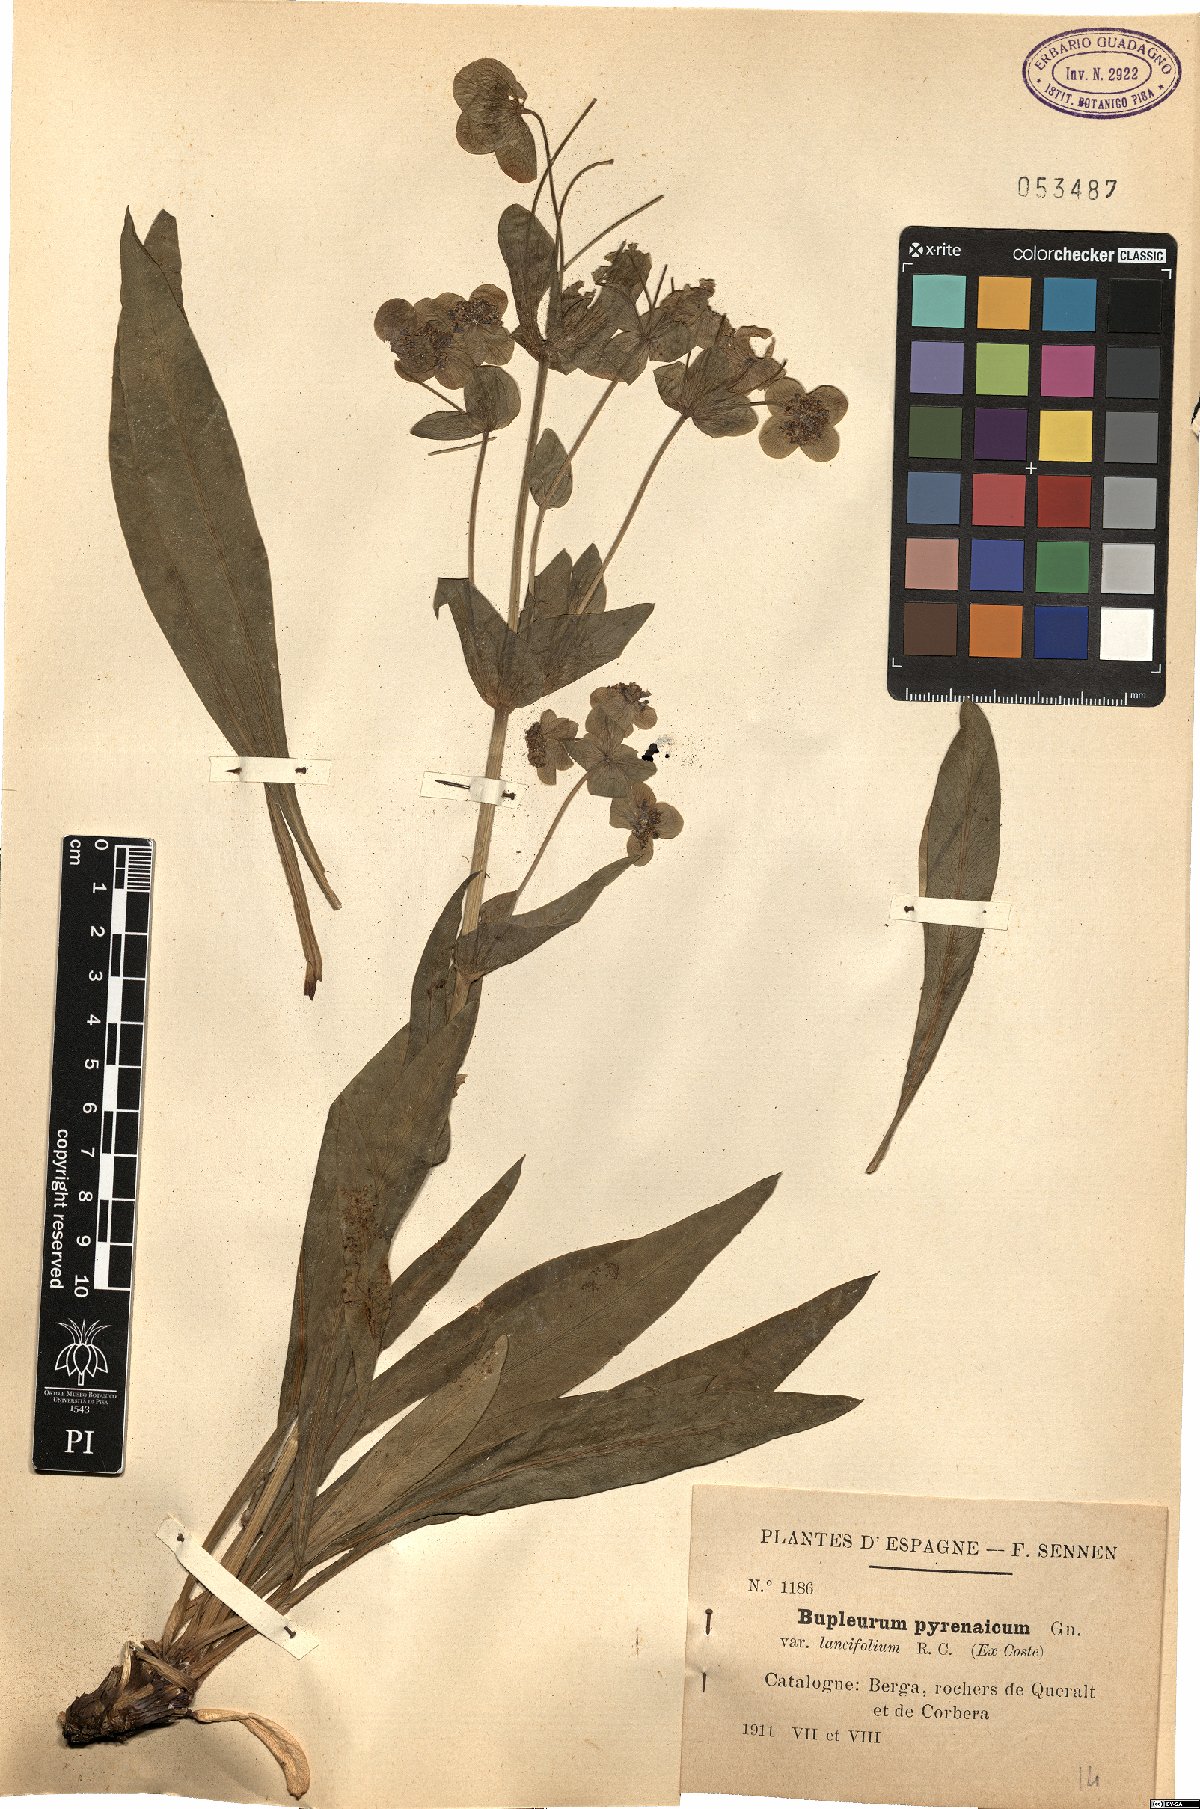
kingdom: Plantae
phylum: Tracheophyta
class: Magnoliopsida
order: Apiales
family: Apiaceae
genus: Bupleurum
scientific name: Bupleurum angulosum
